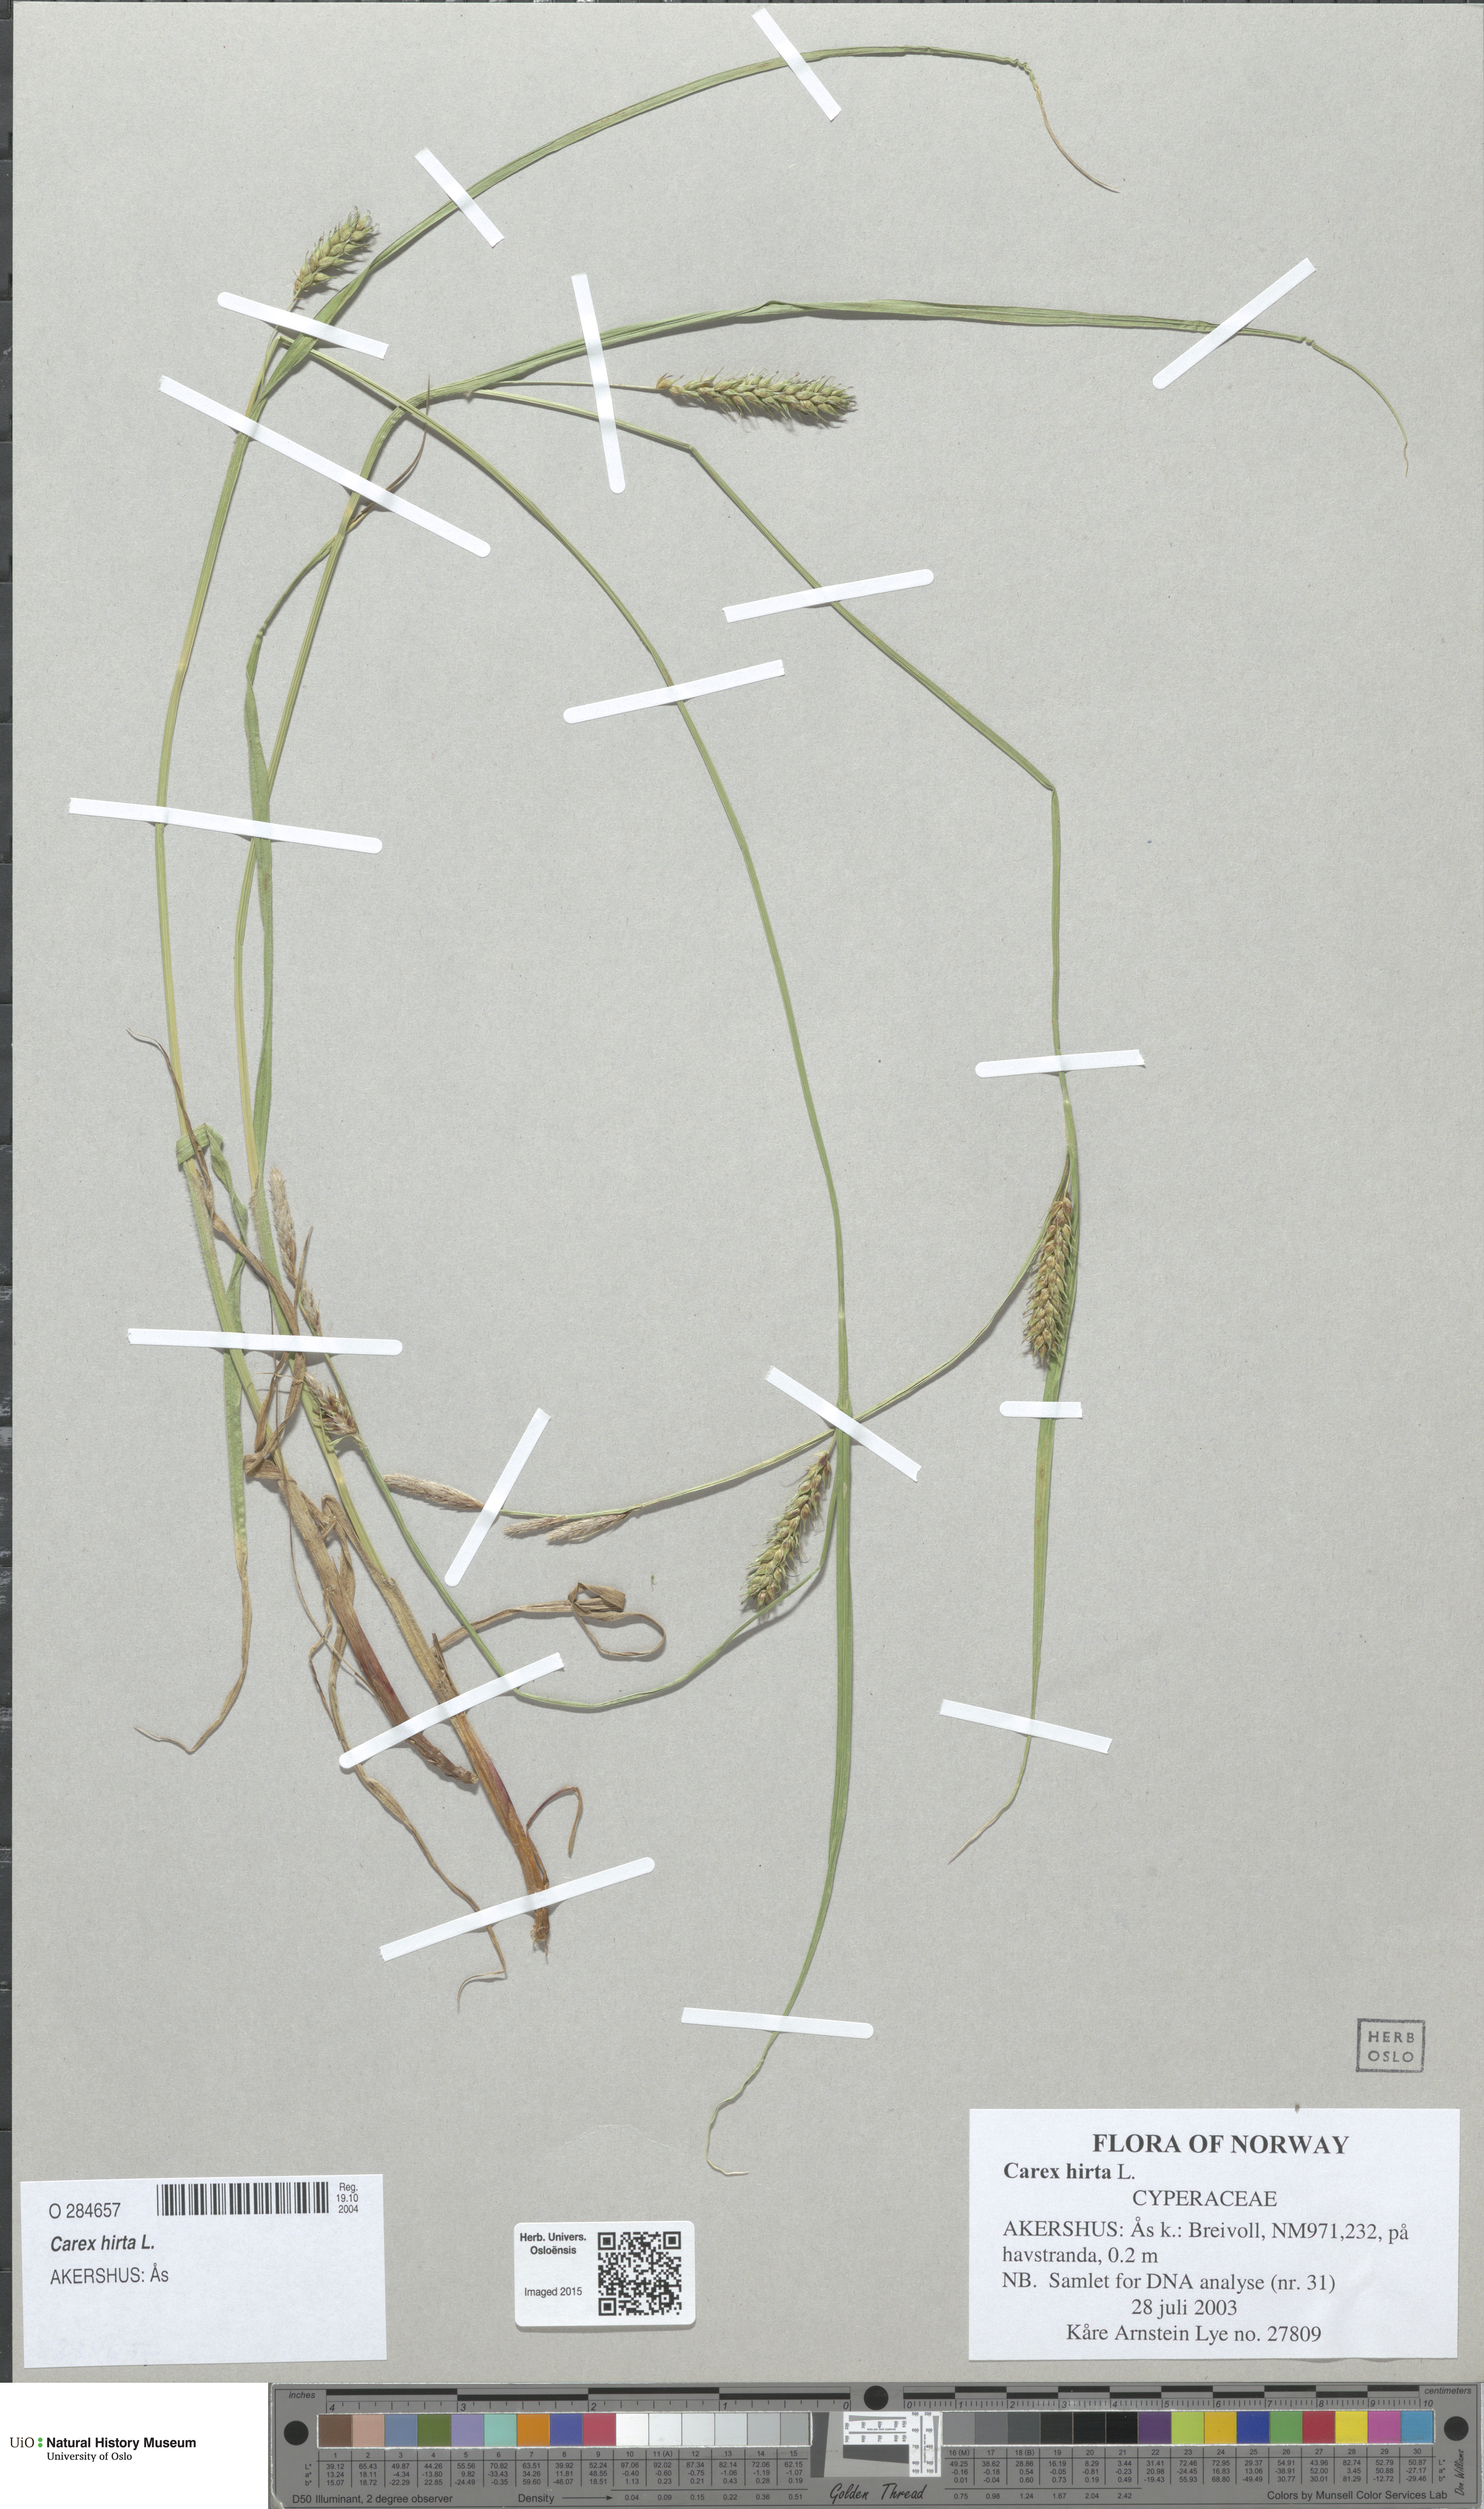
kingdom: Plantae
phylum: Tracheophyta
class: Liliopsida
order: Poales
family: Cyperaceae
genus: Carex
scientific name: Carex hirta
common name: Hairy sedge
